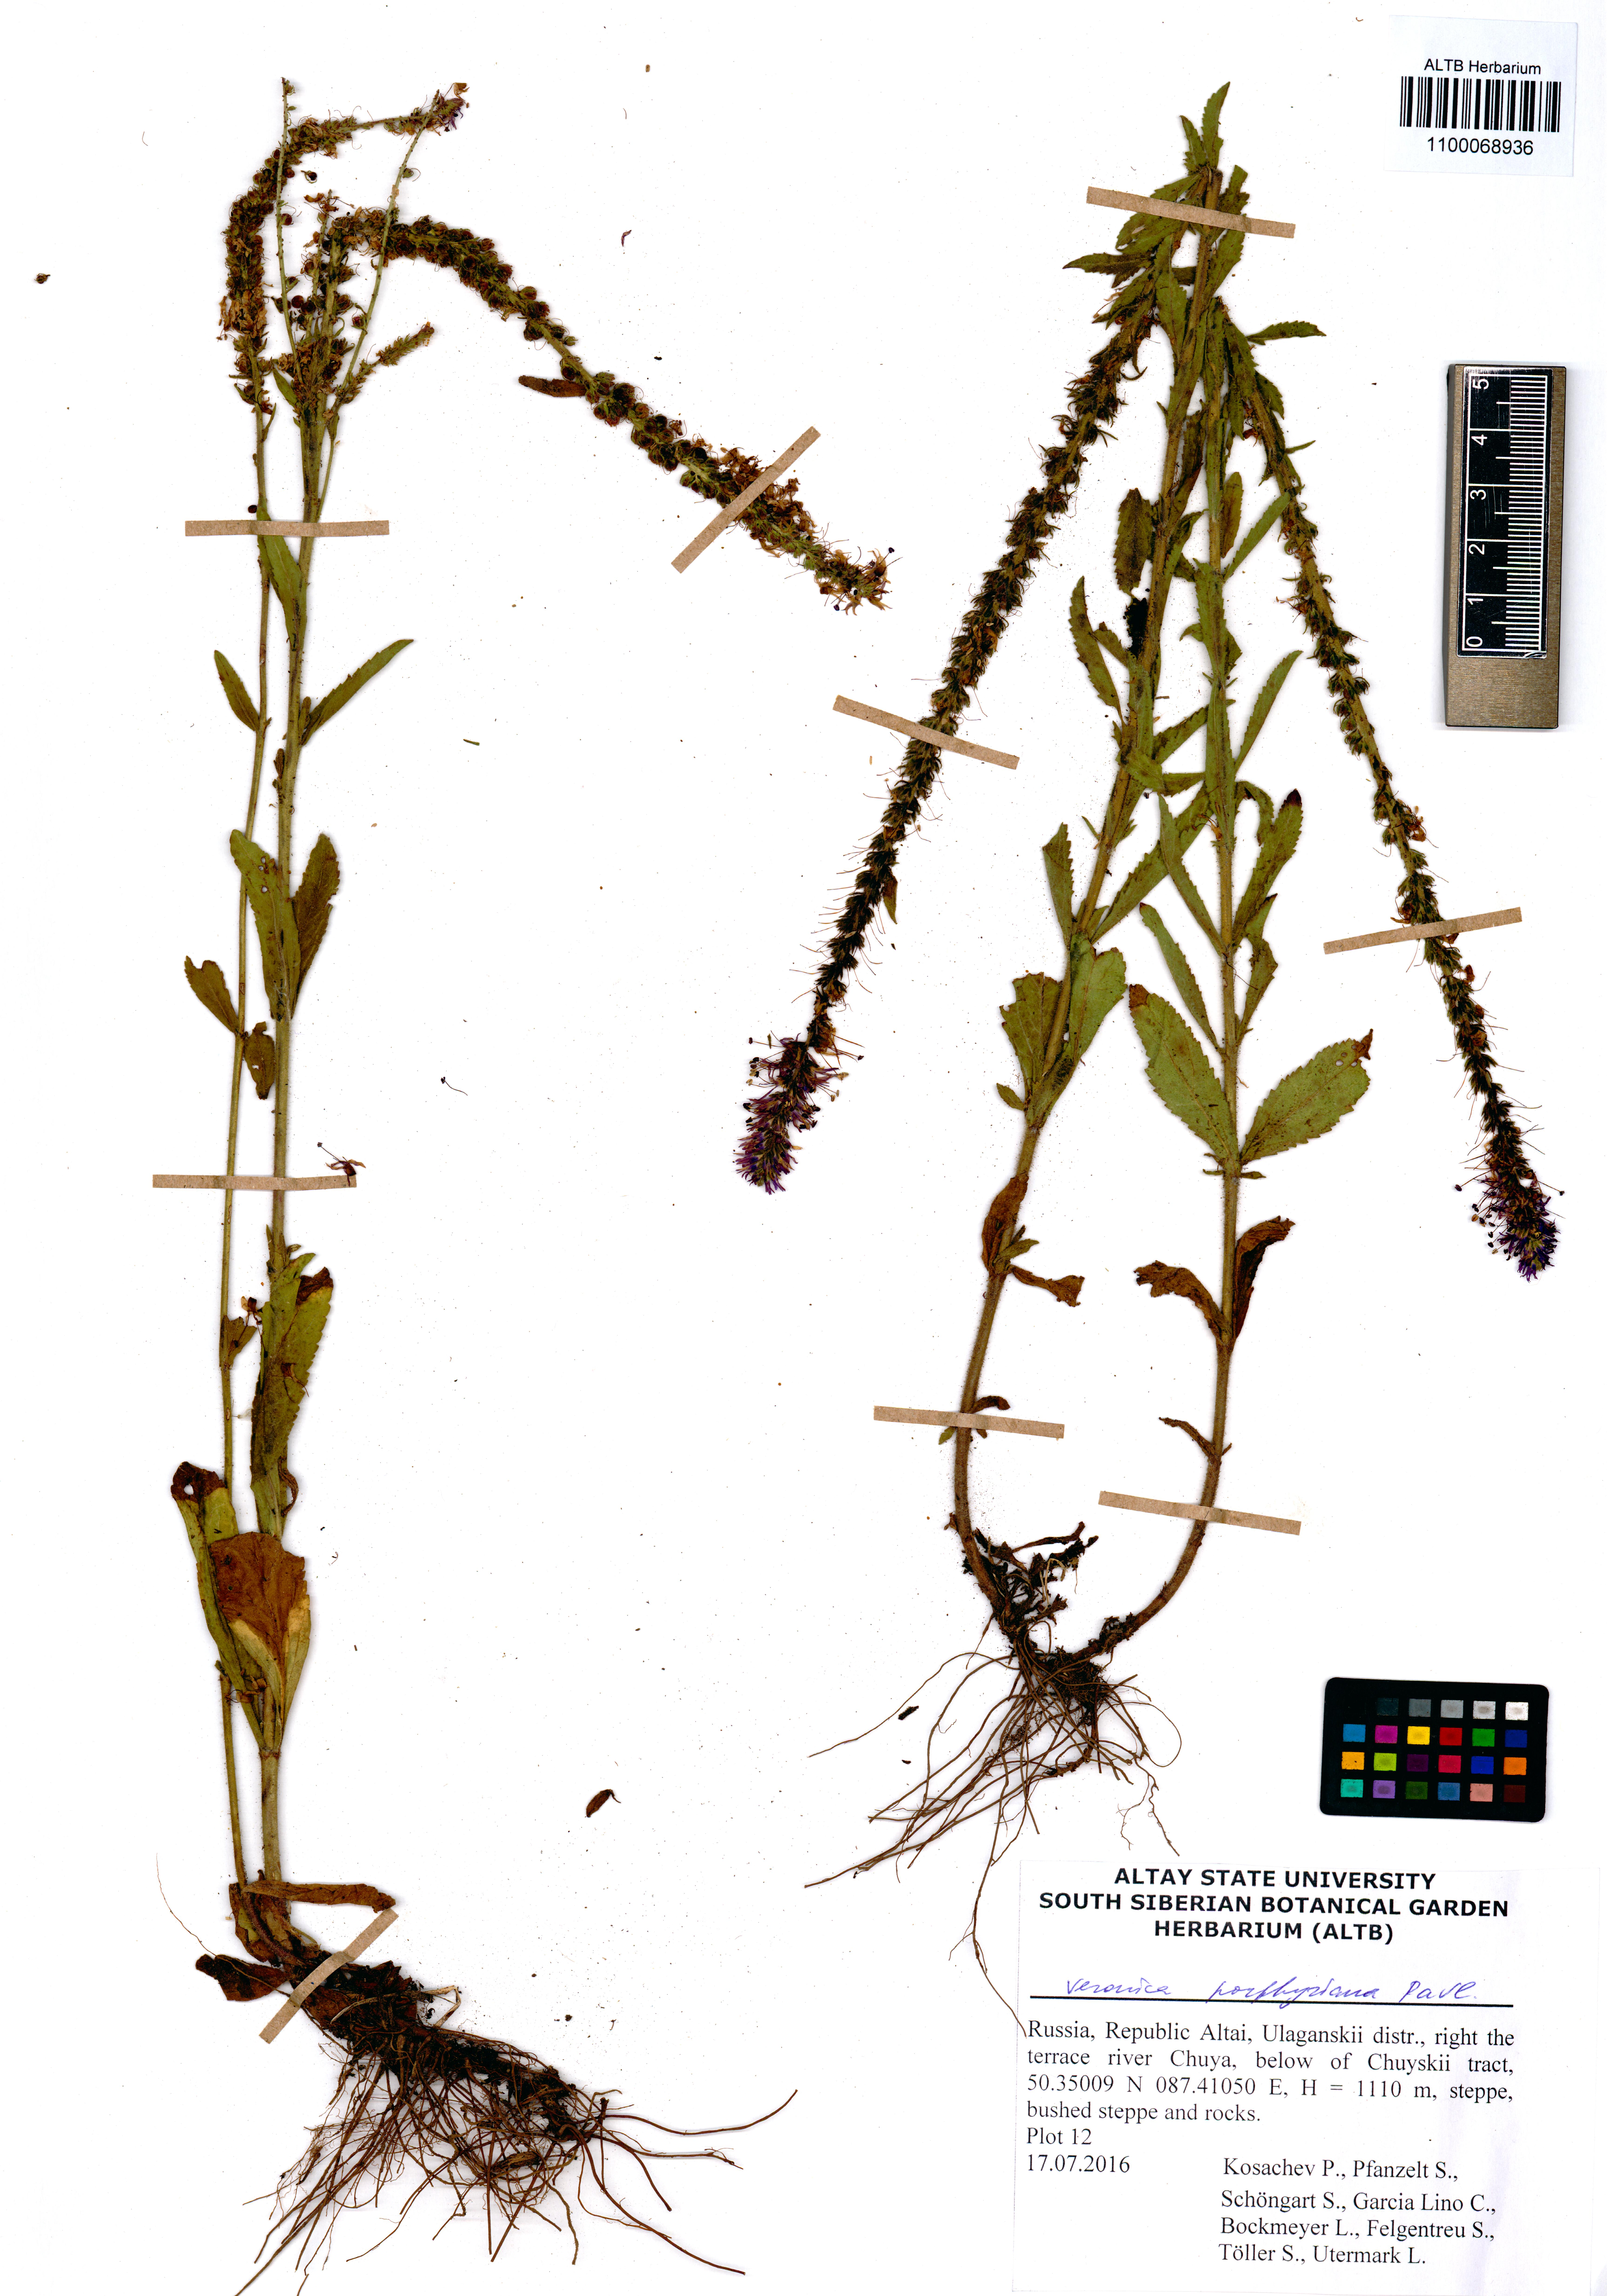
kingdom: Plantae
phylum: Tracheophyta
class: Magnoliopsida
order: Lamiales
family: Plantaginaceae
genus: Veronica
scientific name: Veronica porphyriana
